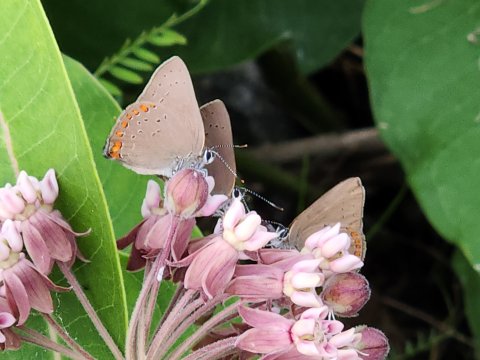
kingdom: Animalia
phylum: Arthropoda
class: Insecta
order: Lepidoptera
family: Lycaenidae
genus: Harkenclenus
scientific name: Harkenclenus titus
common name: Coral Hairstreak
